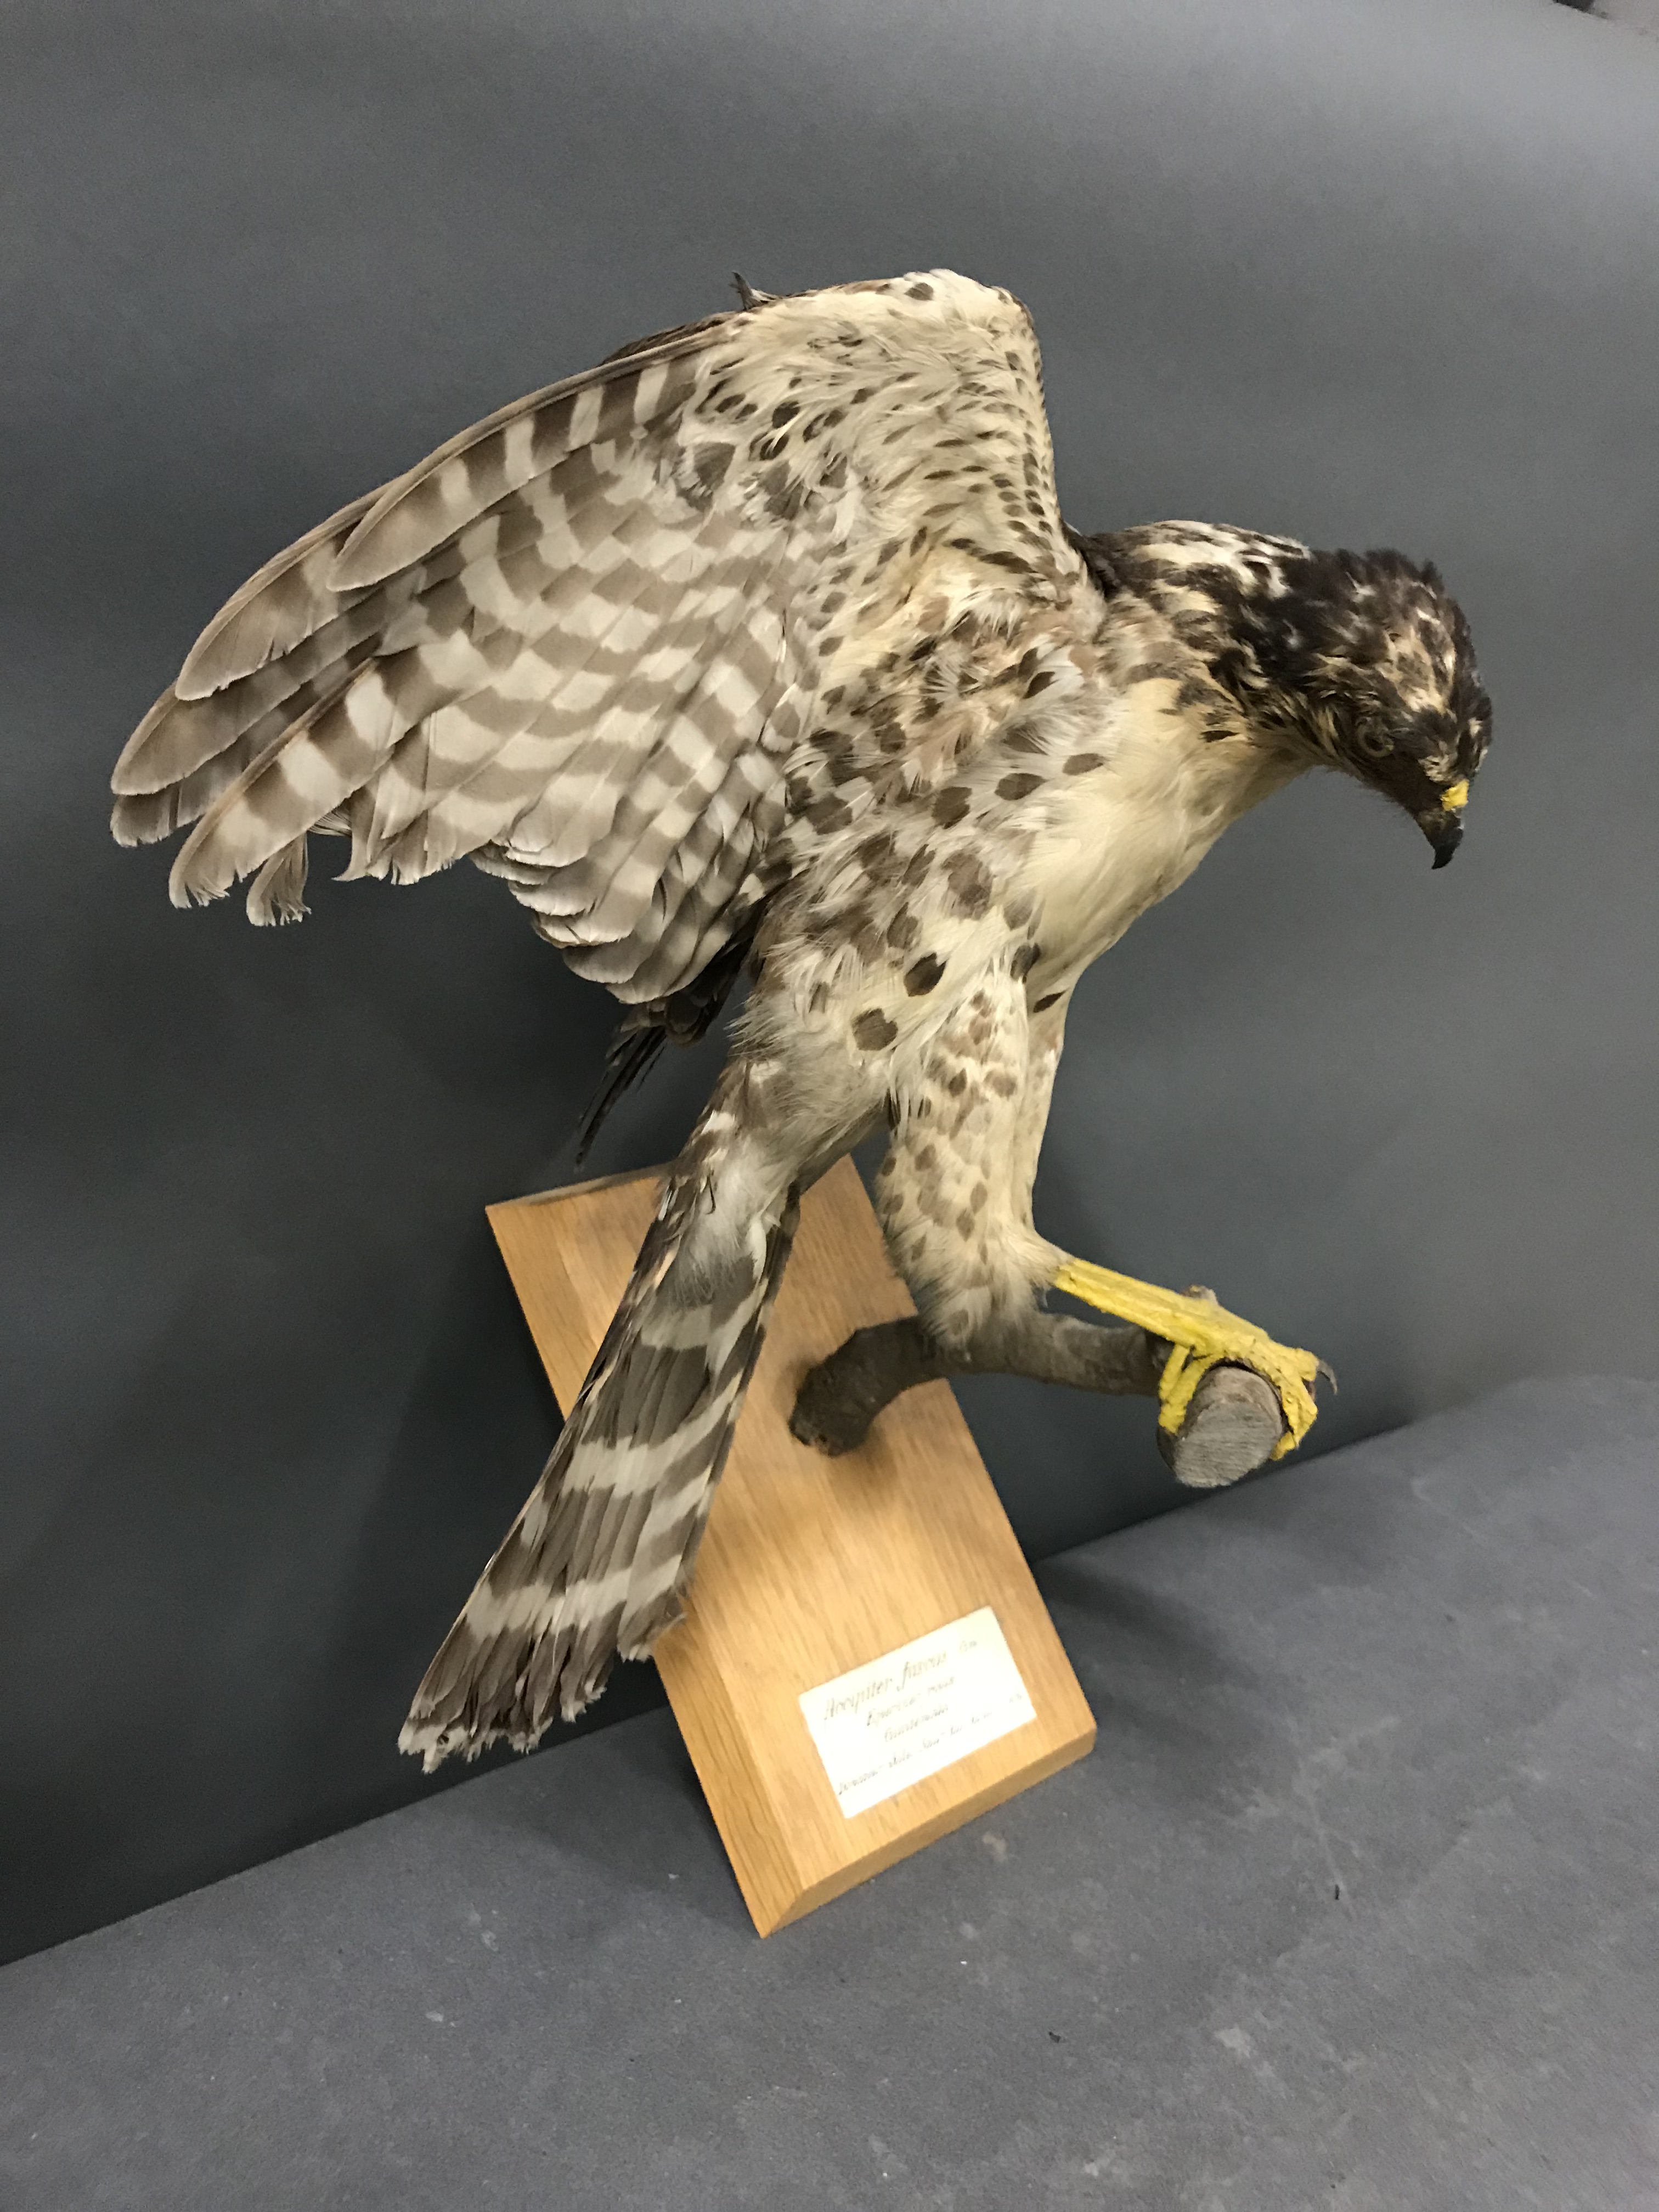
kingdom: Animalia
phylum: Chordata
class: Aves
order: Accipitriformes
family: Accipitridae
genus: Accipiter
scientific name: Accipiter bicolor
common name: Bicolored hawk
